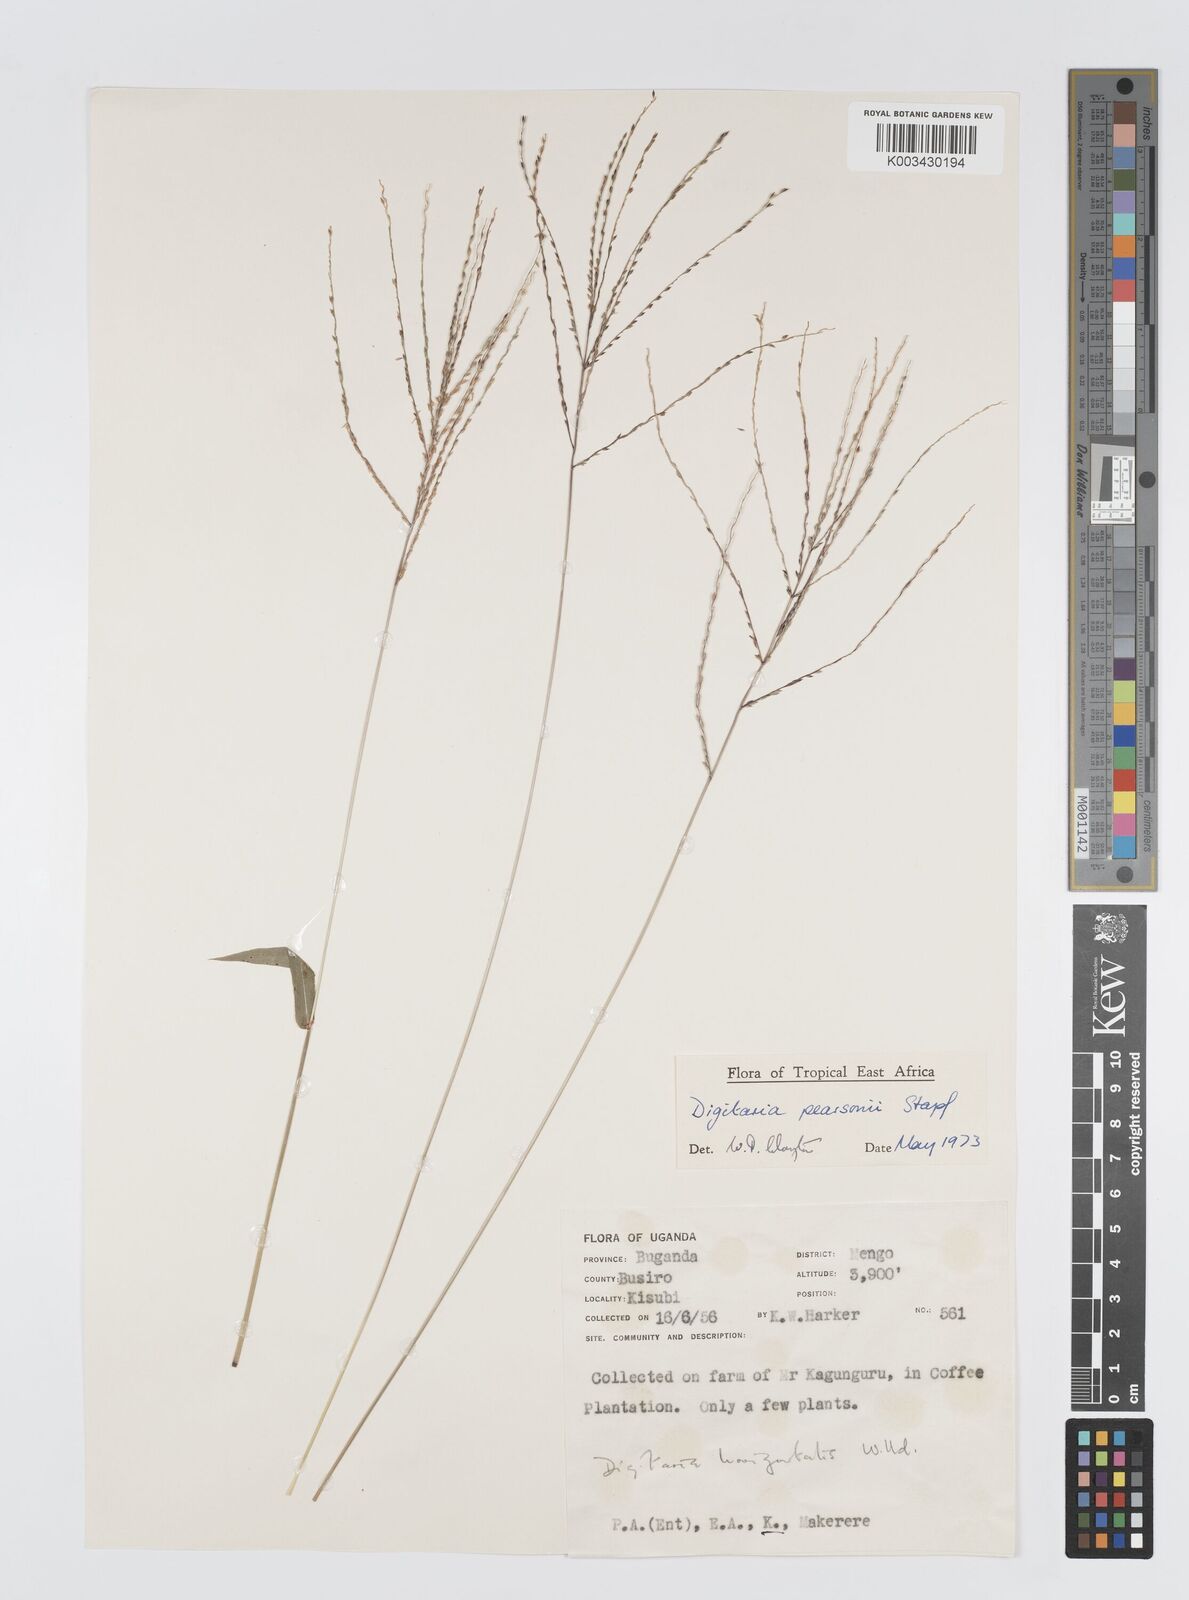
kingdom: Plantae
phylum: Tracheophyta
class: Liliopsida
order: Poales
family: Poaceae
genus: Digitaria
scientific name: Digitaria pearsonii
